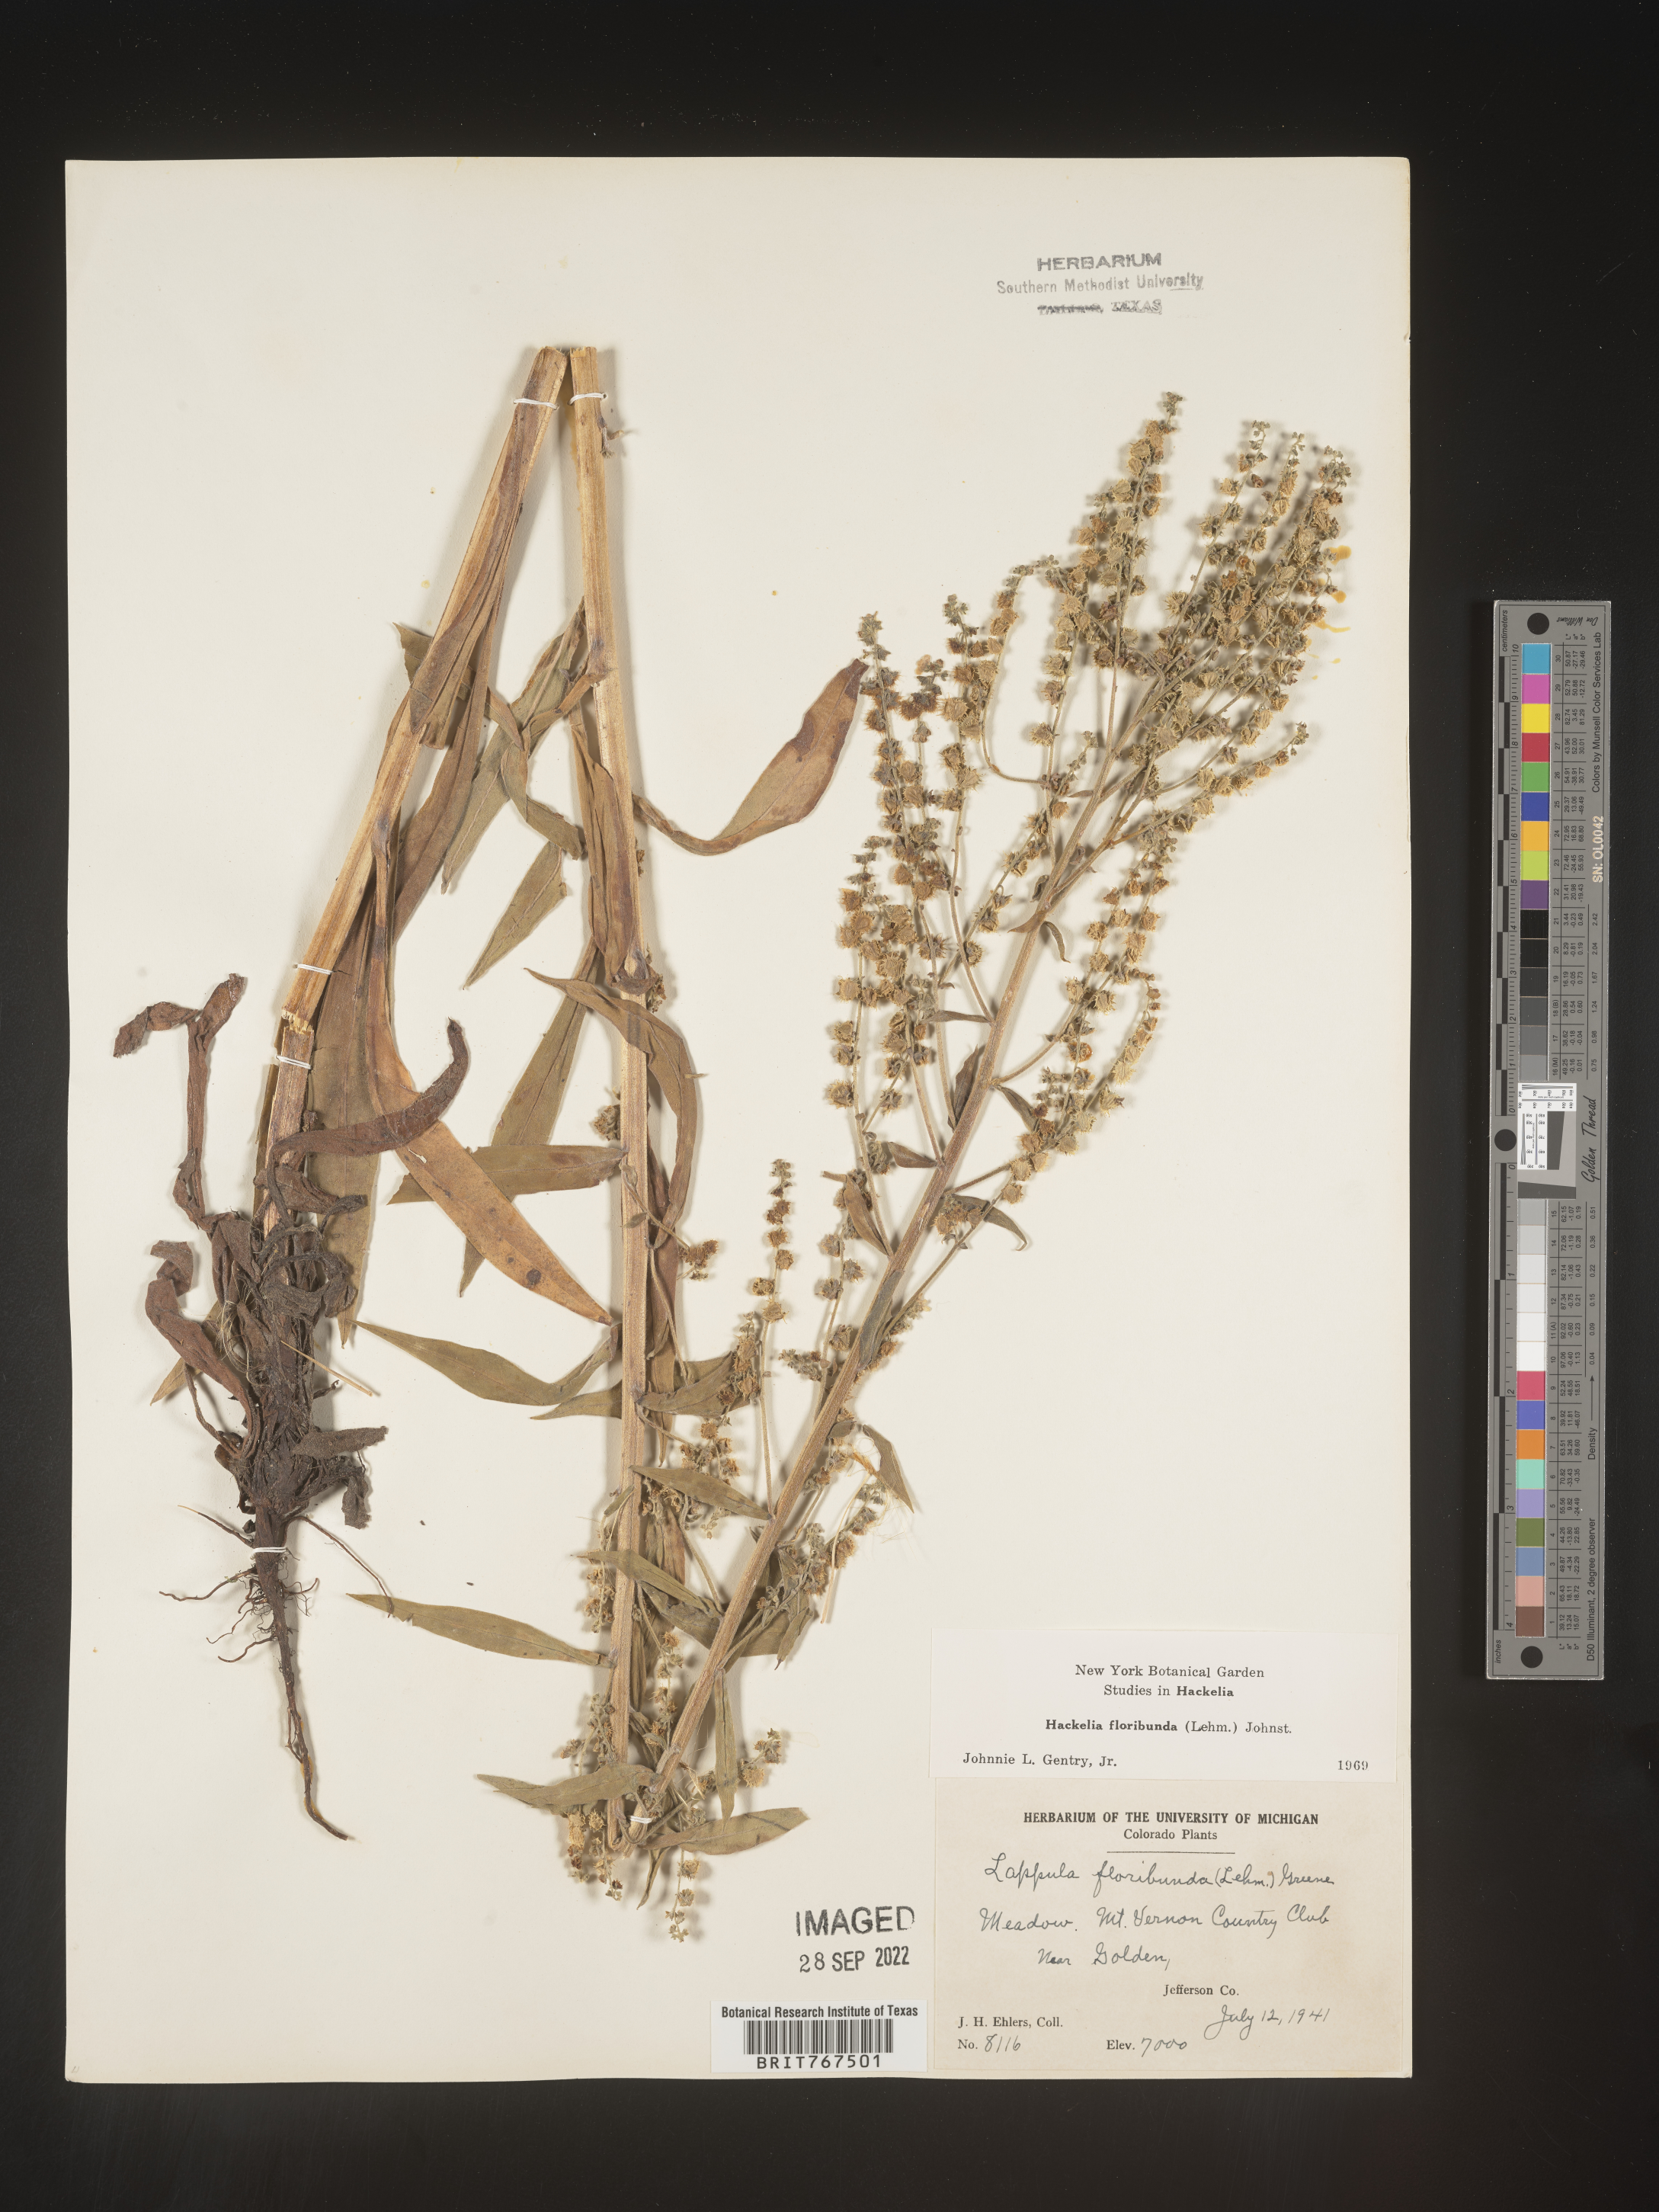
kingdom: Plantae
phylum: Tracheophyta
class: Magnoliopsida
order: Boraginales
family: Boraginaceae
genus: Hackelia
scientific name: Hackelia floribunda
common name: Large-flowered stickseed
